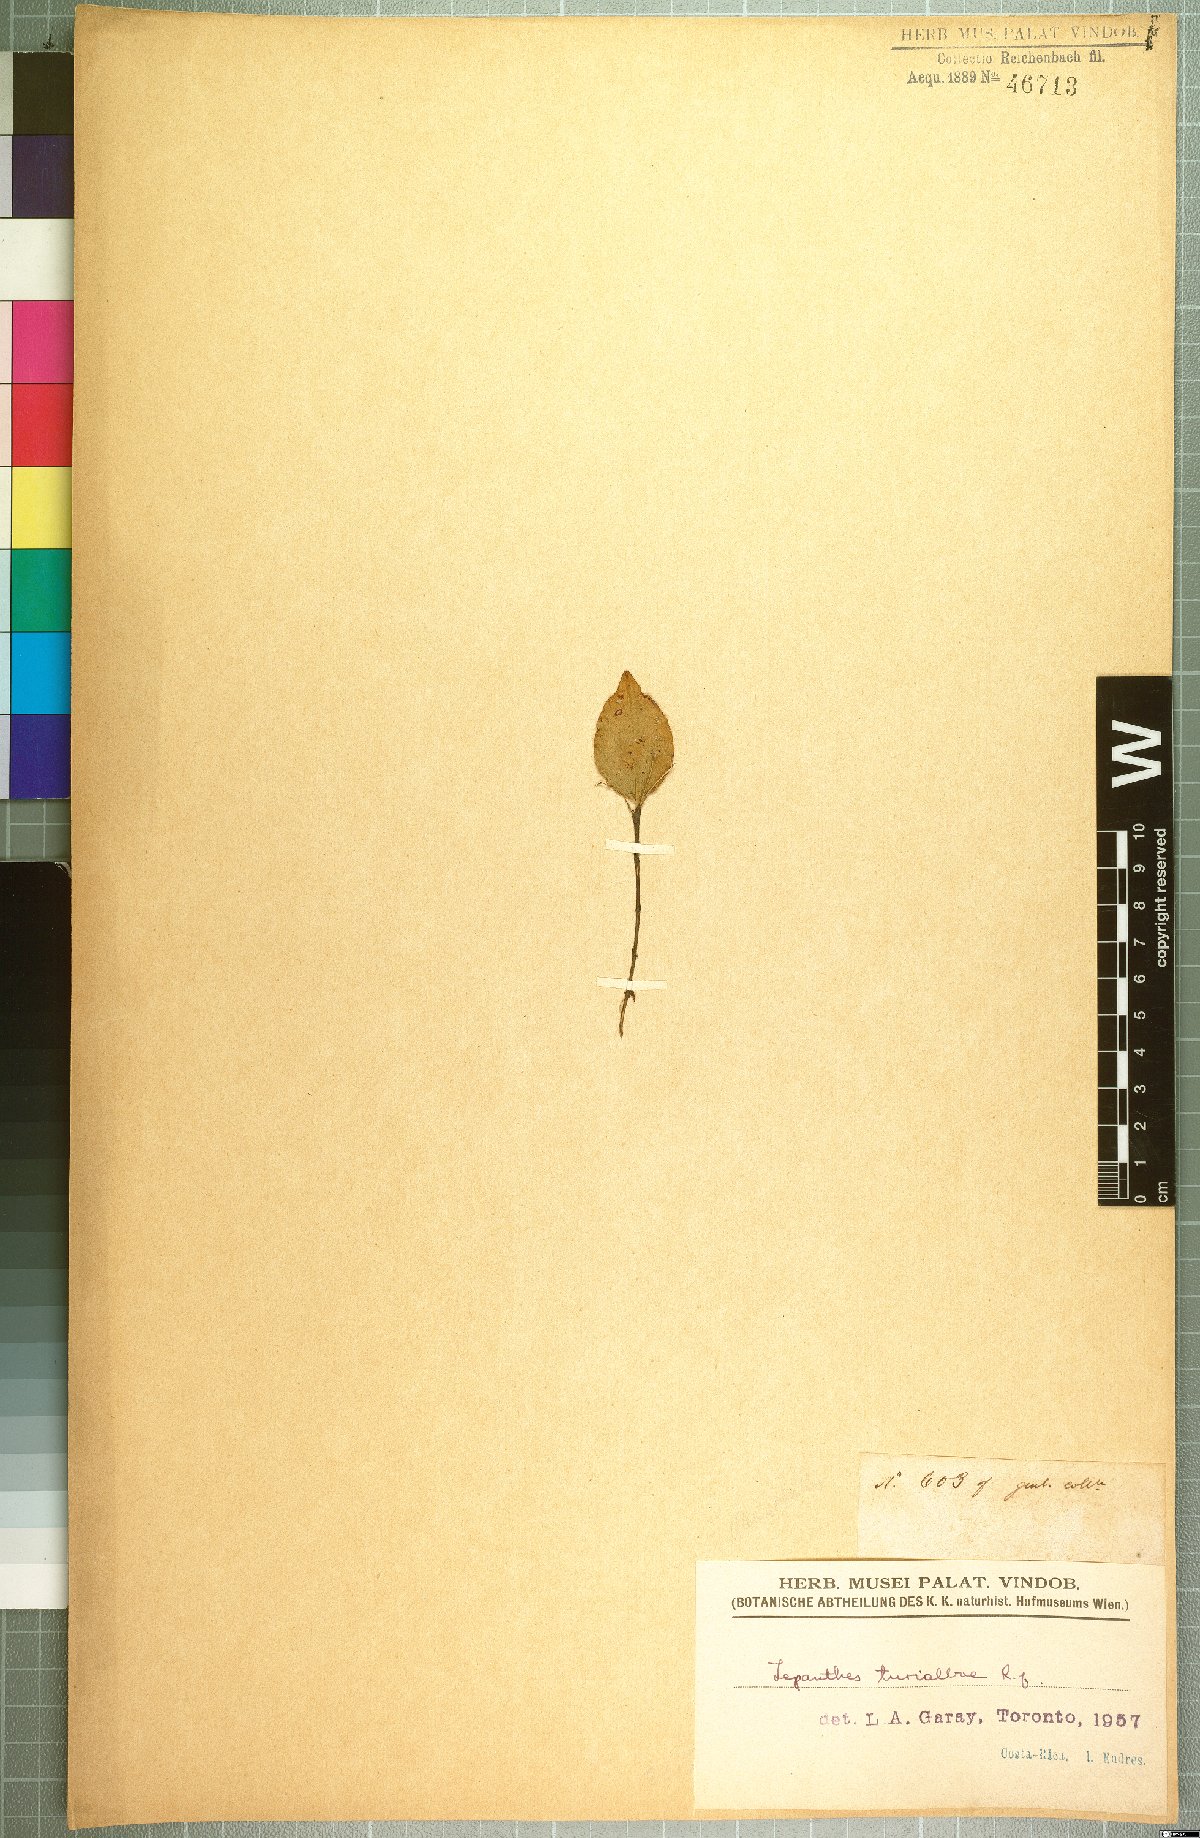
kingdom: Plantae
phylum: Tracheophyta
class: Liliopsida
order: Asparagales
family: Orchidaceae
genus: Lepanthes
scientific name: Lepanthes turialvae
